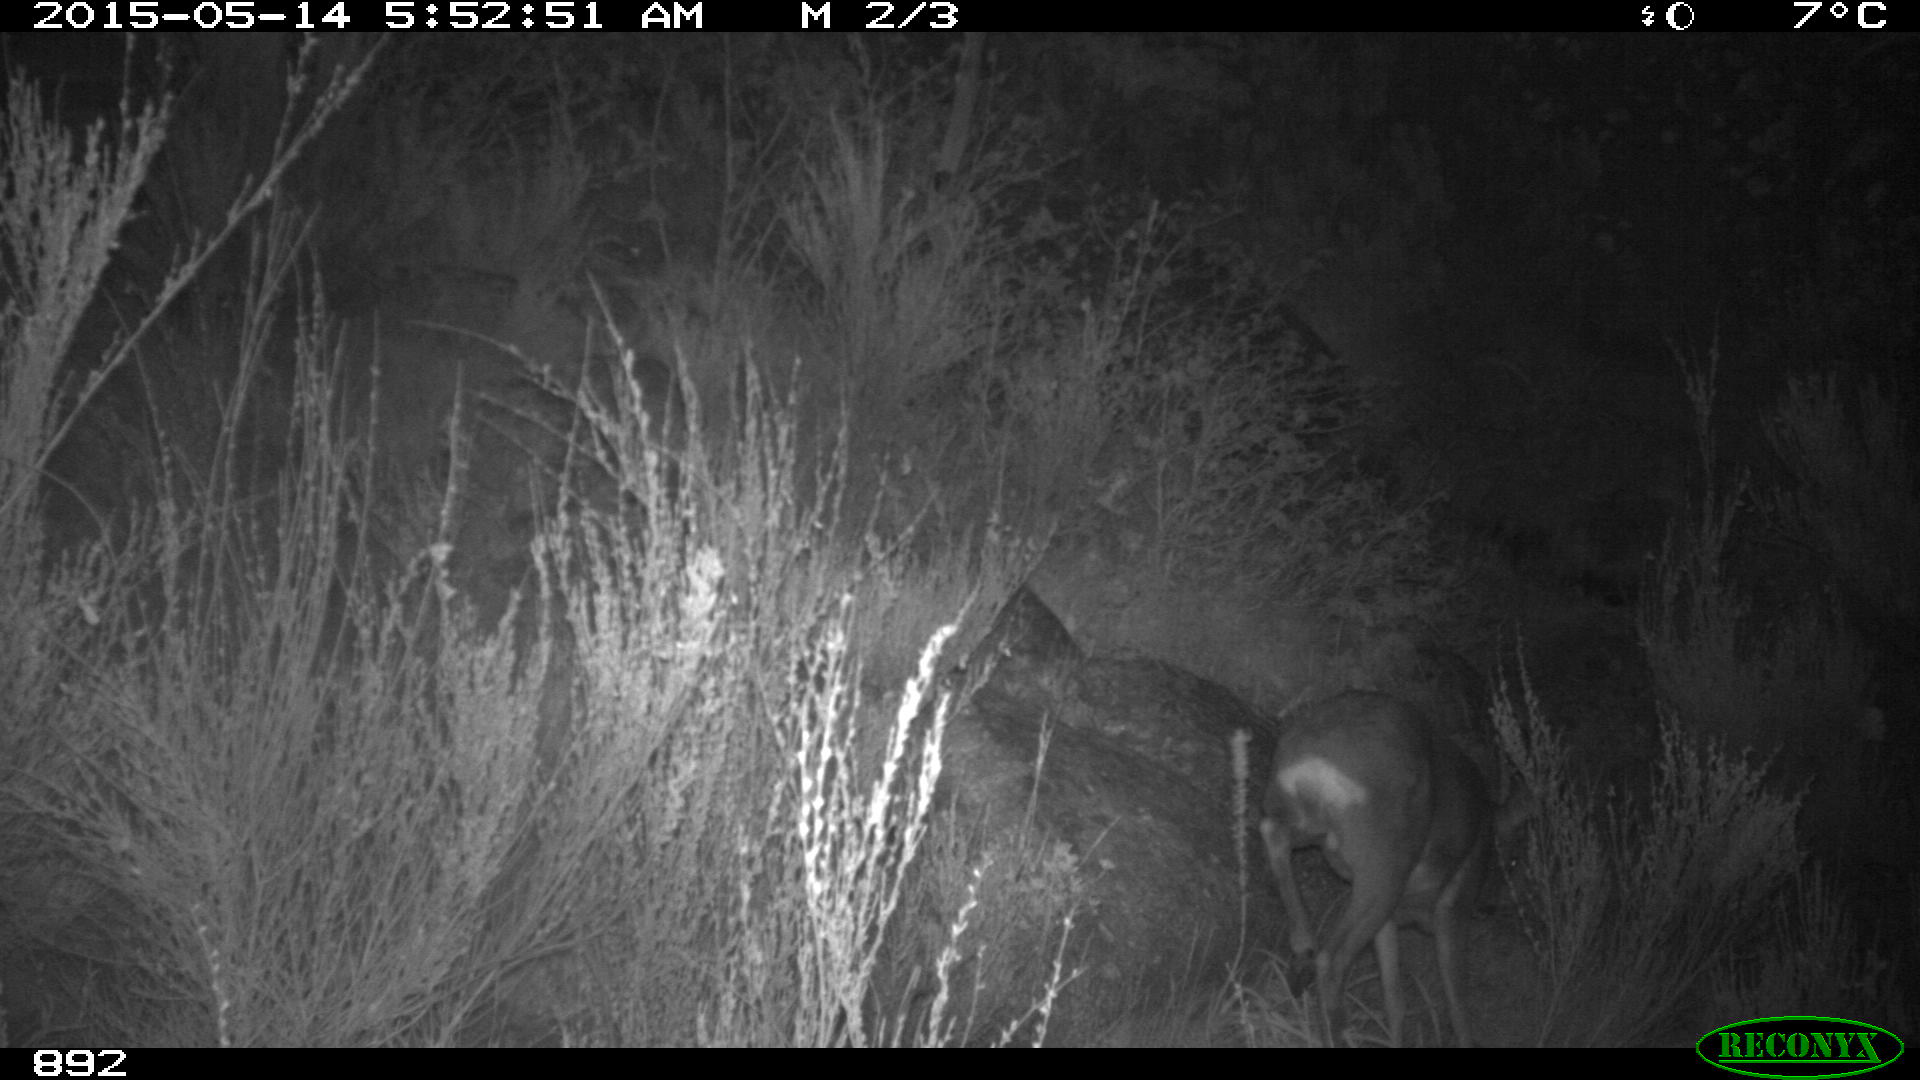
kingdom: Animalia
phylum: Chordata
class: Mammalia
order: Artiodactyla
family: Cervidae
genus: Capreolus
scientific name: Capreolus capreolus
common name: Western roe deer
